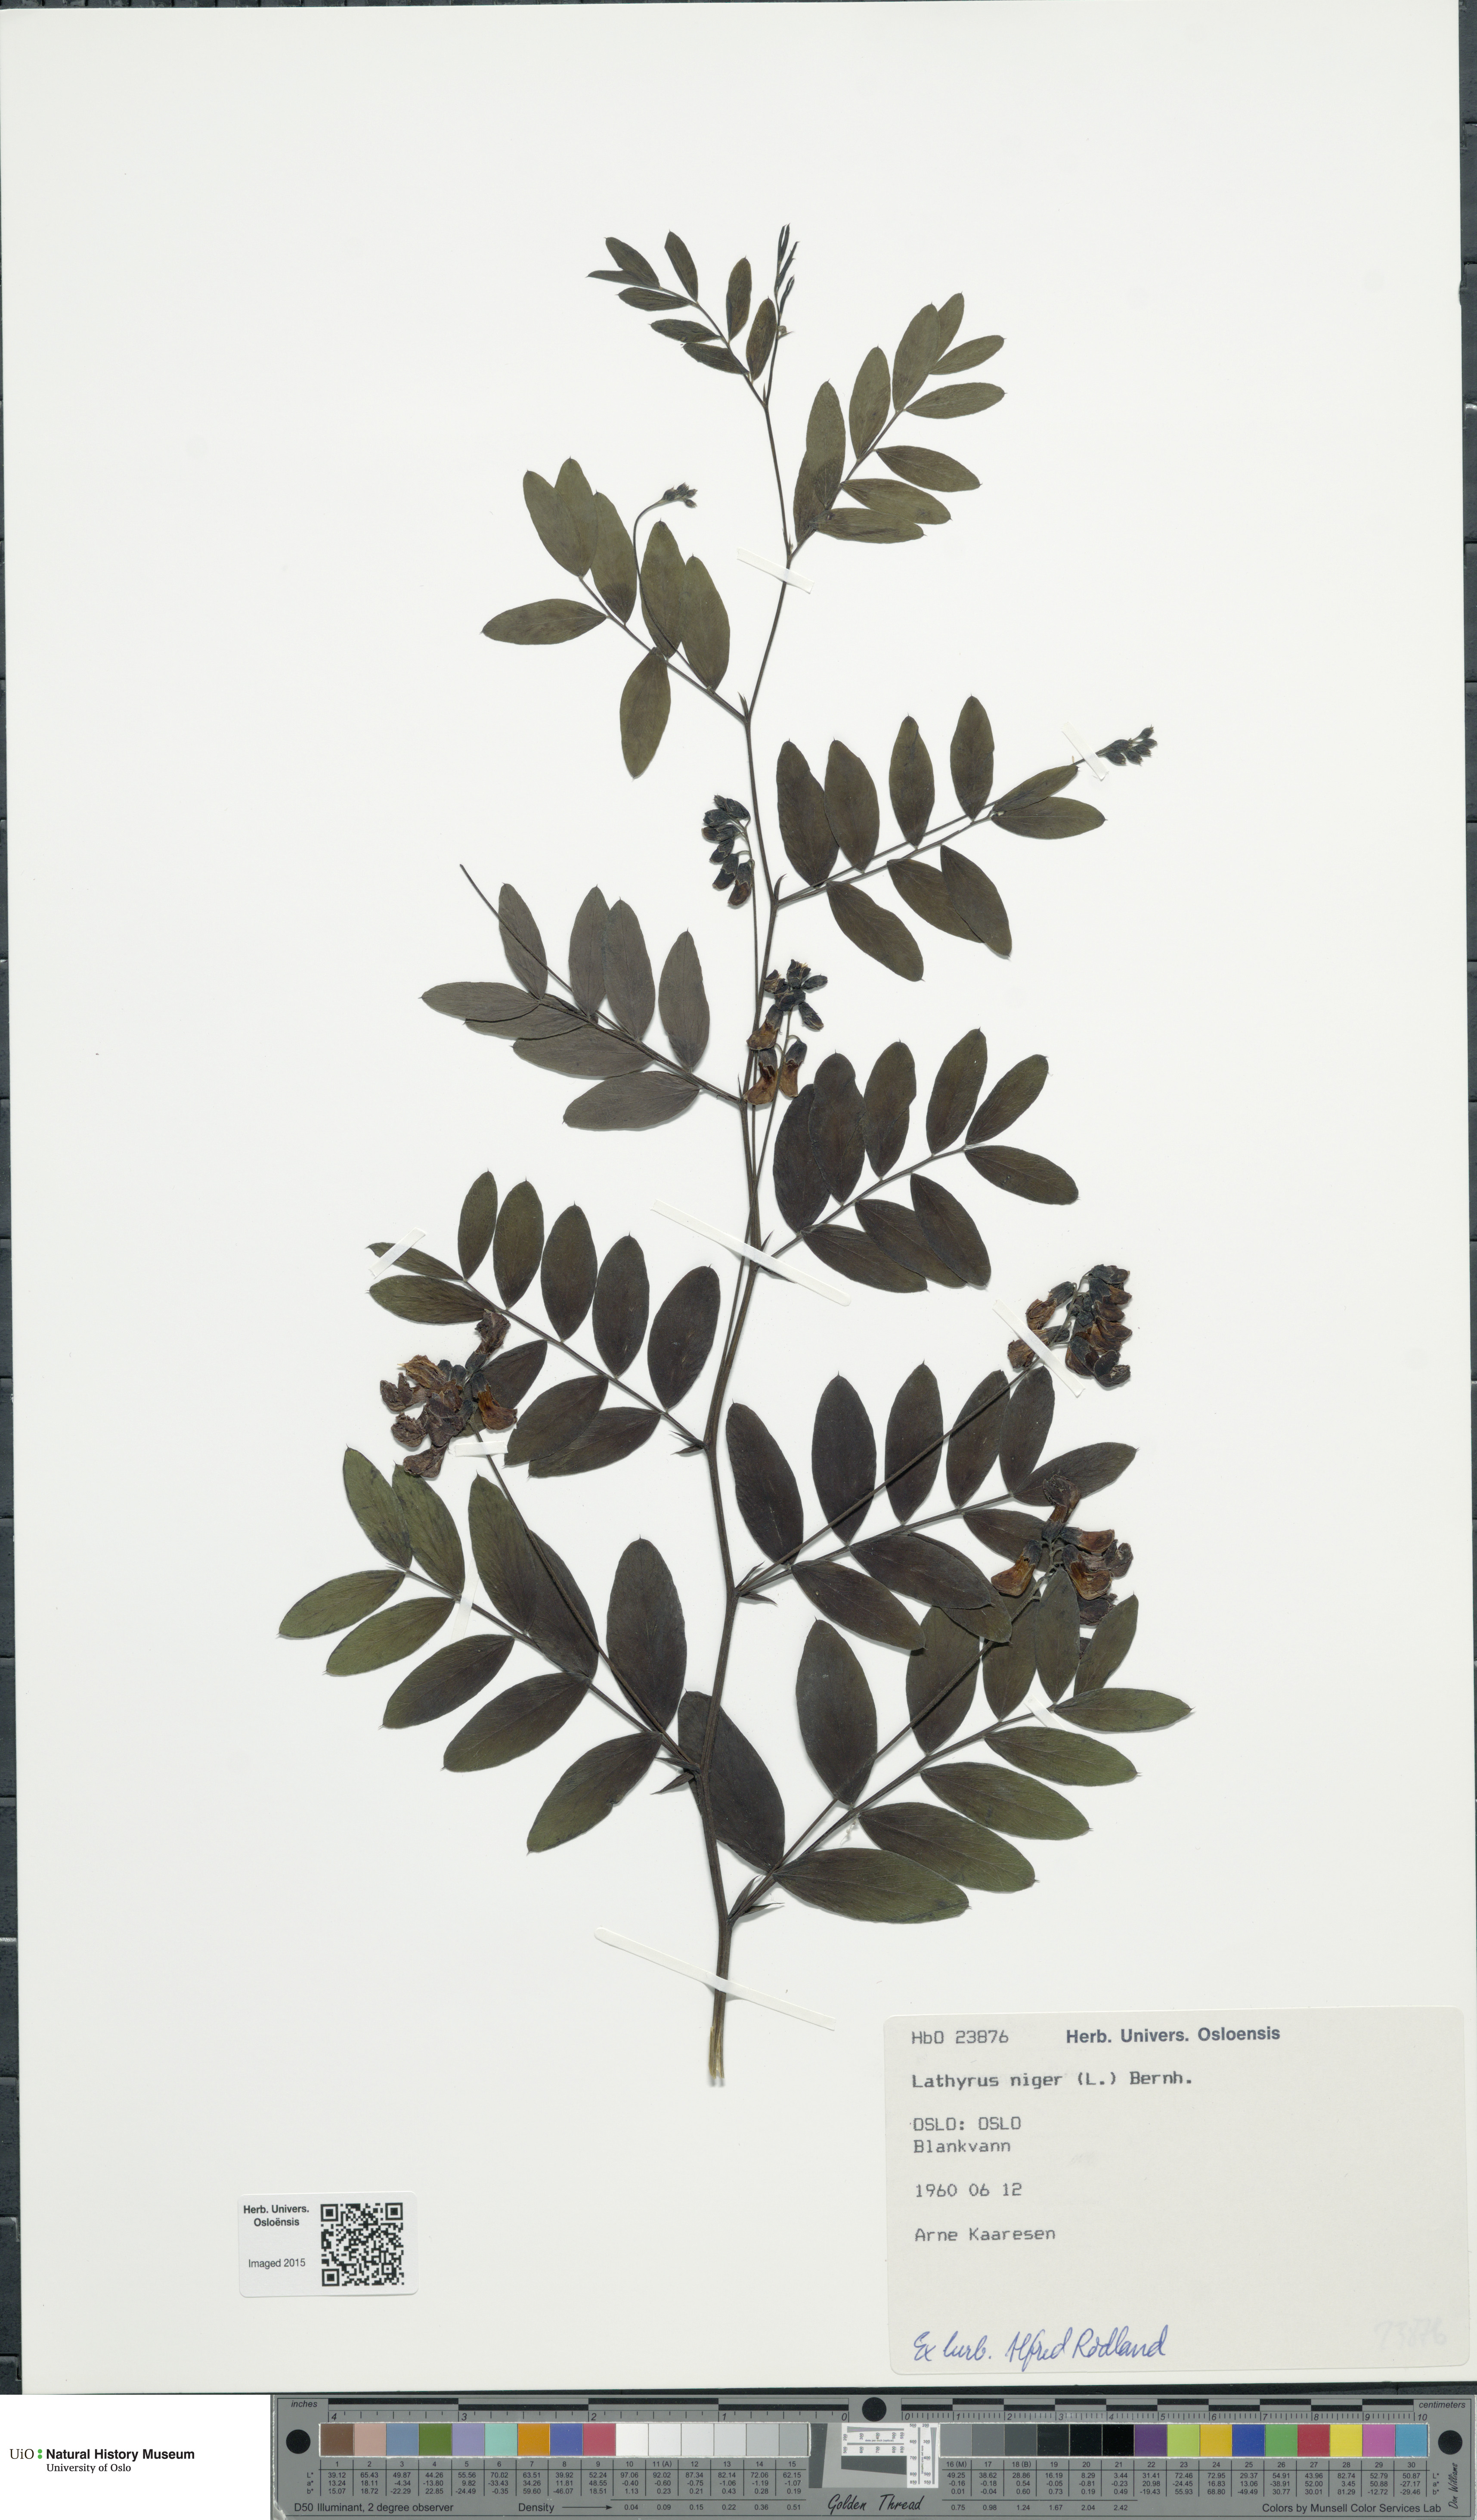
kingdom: Plantae
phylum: Tracheophyta
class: Magnoliopsida
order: Fabales
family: Fabaceae
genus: Lathyrus
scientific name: Lathyrus niger
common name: Black pea
